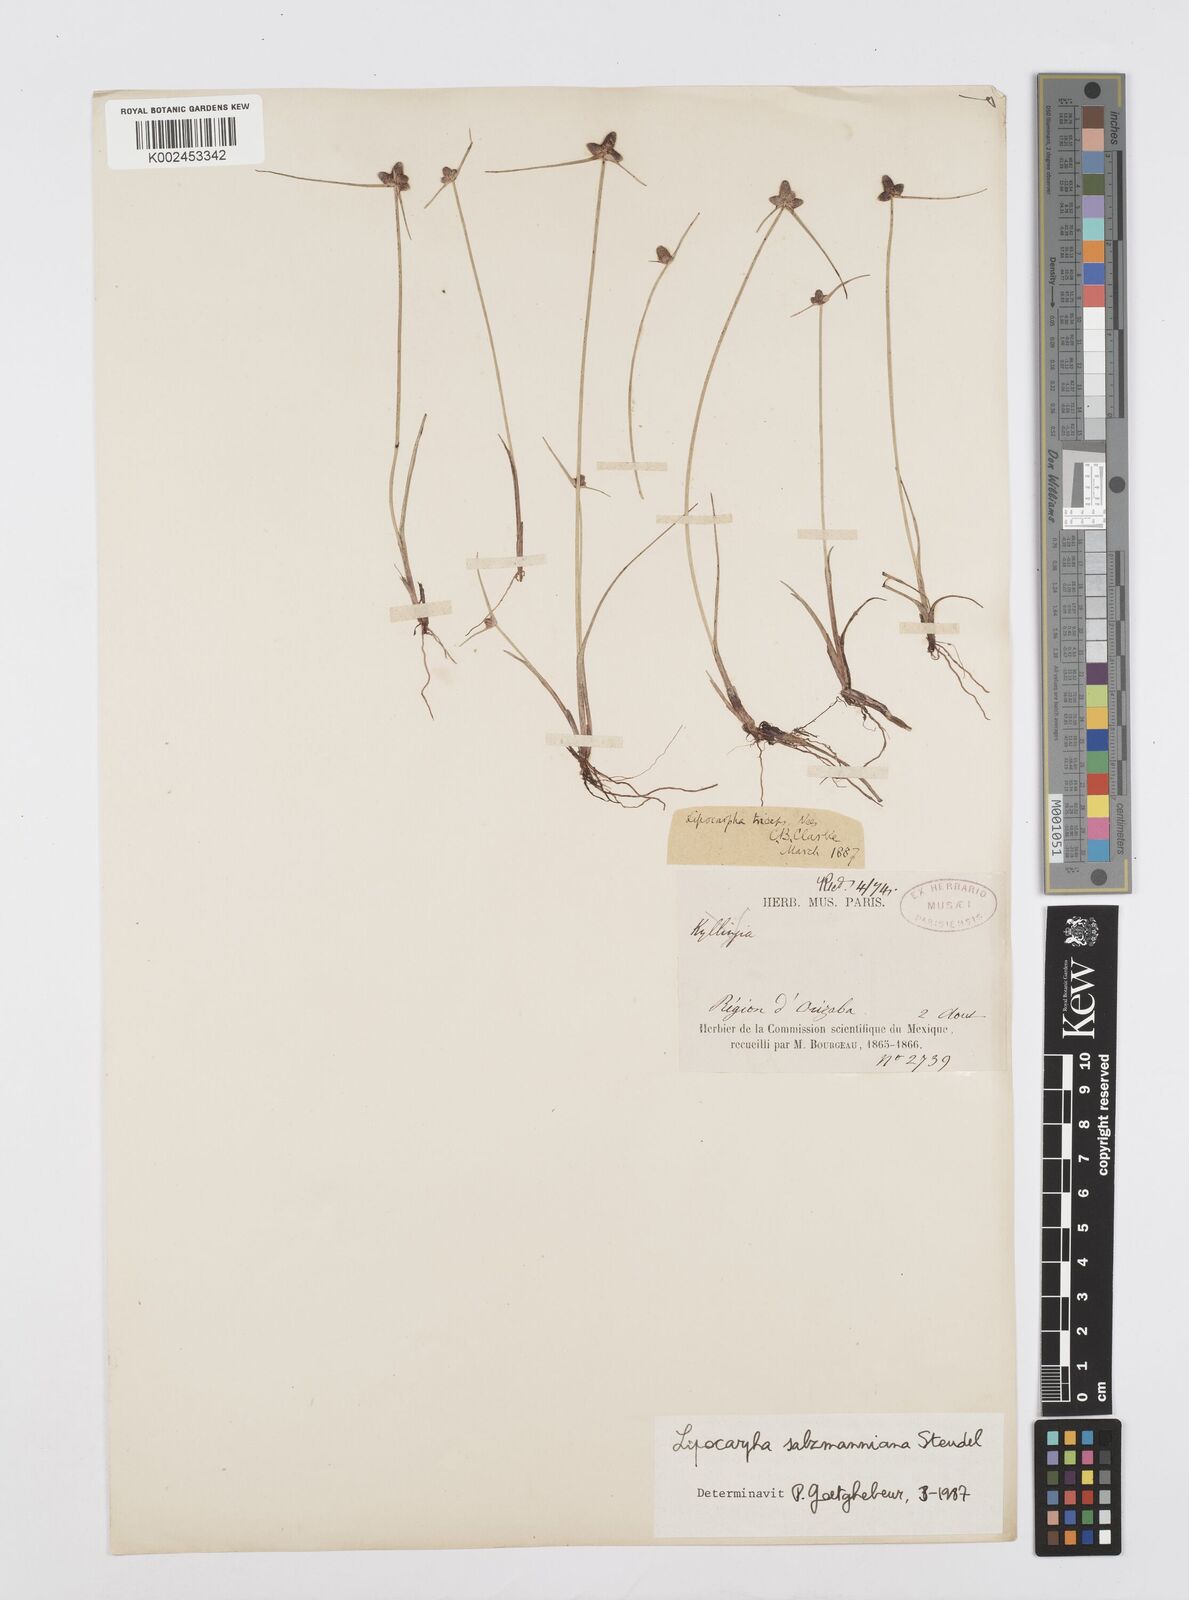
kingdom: Plantae
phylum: Tracheophyta
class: Liliopsida
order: Poales
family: Cyperaceae
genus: Cyperus
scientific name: Cyperus salzmannianus
